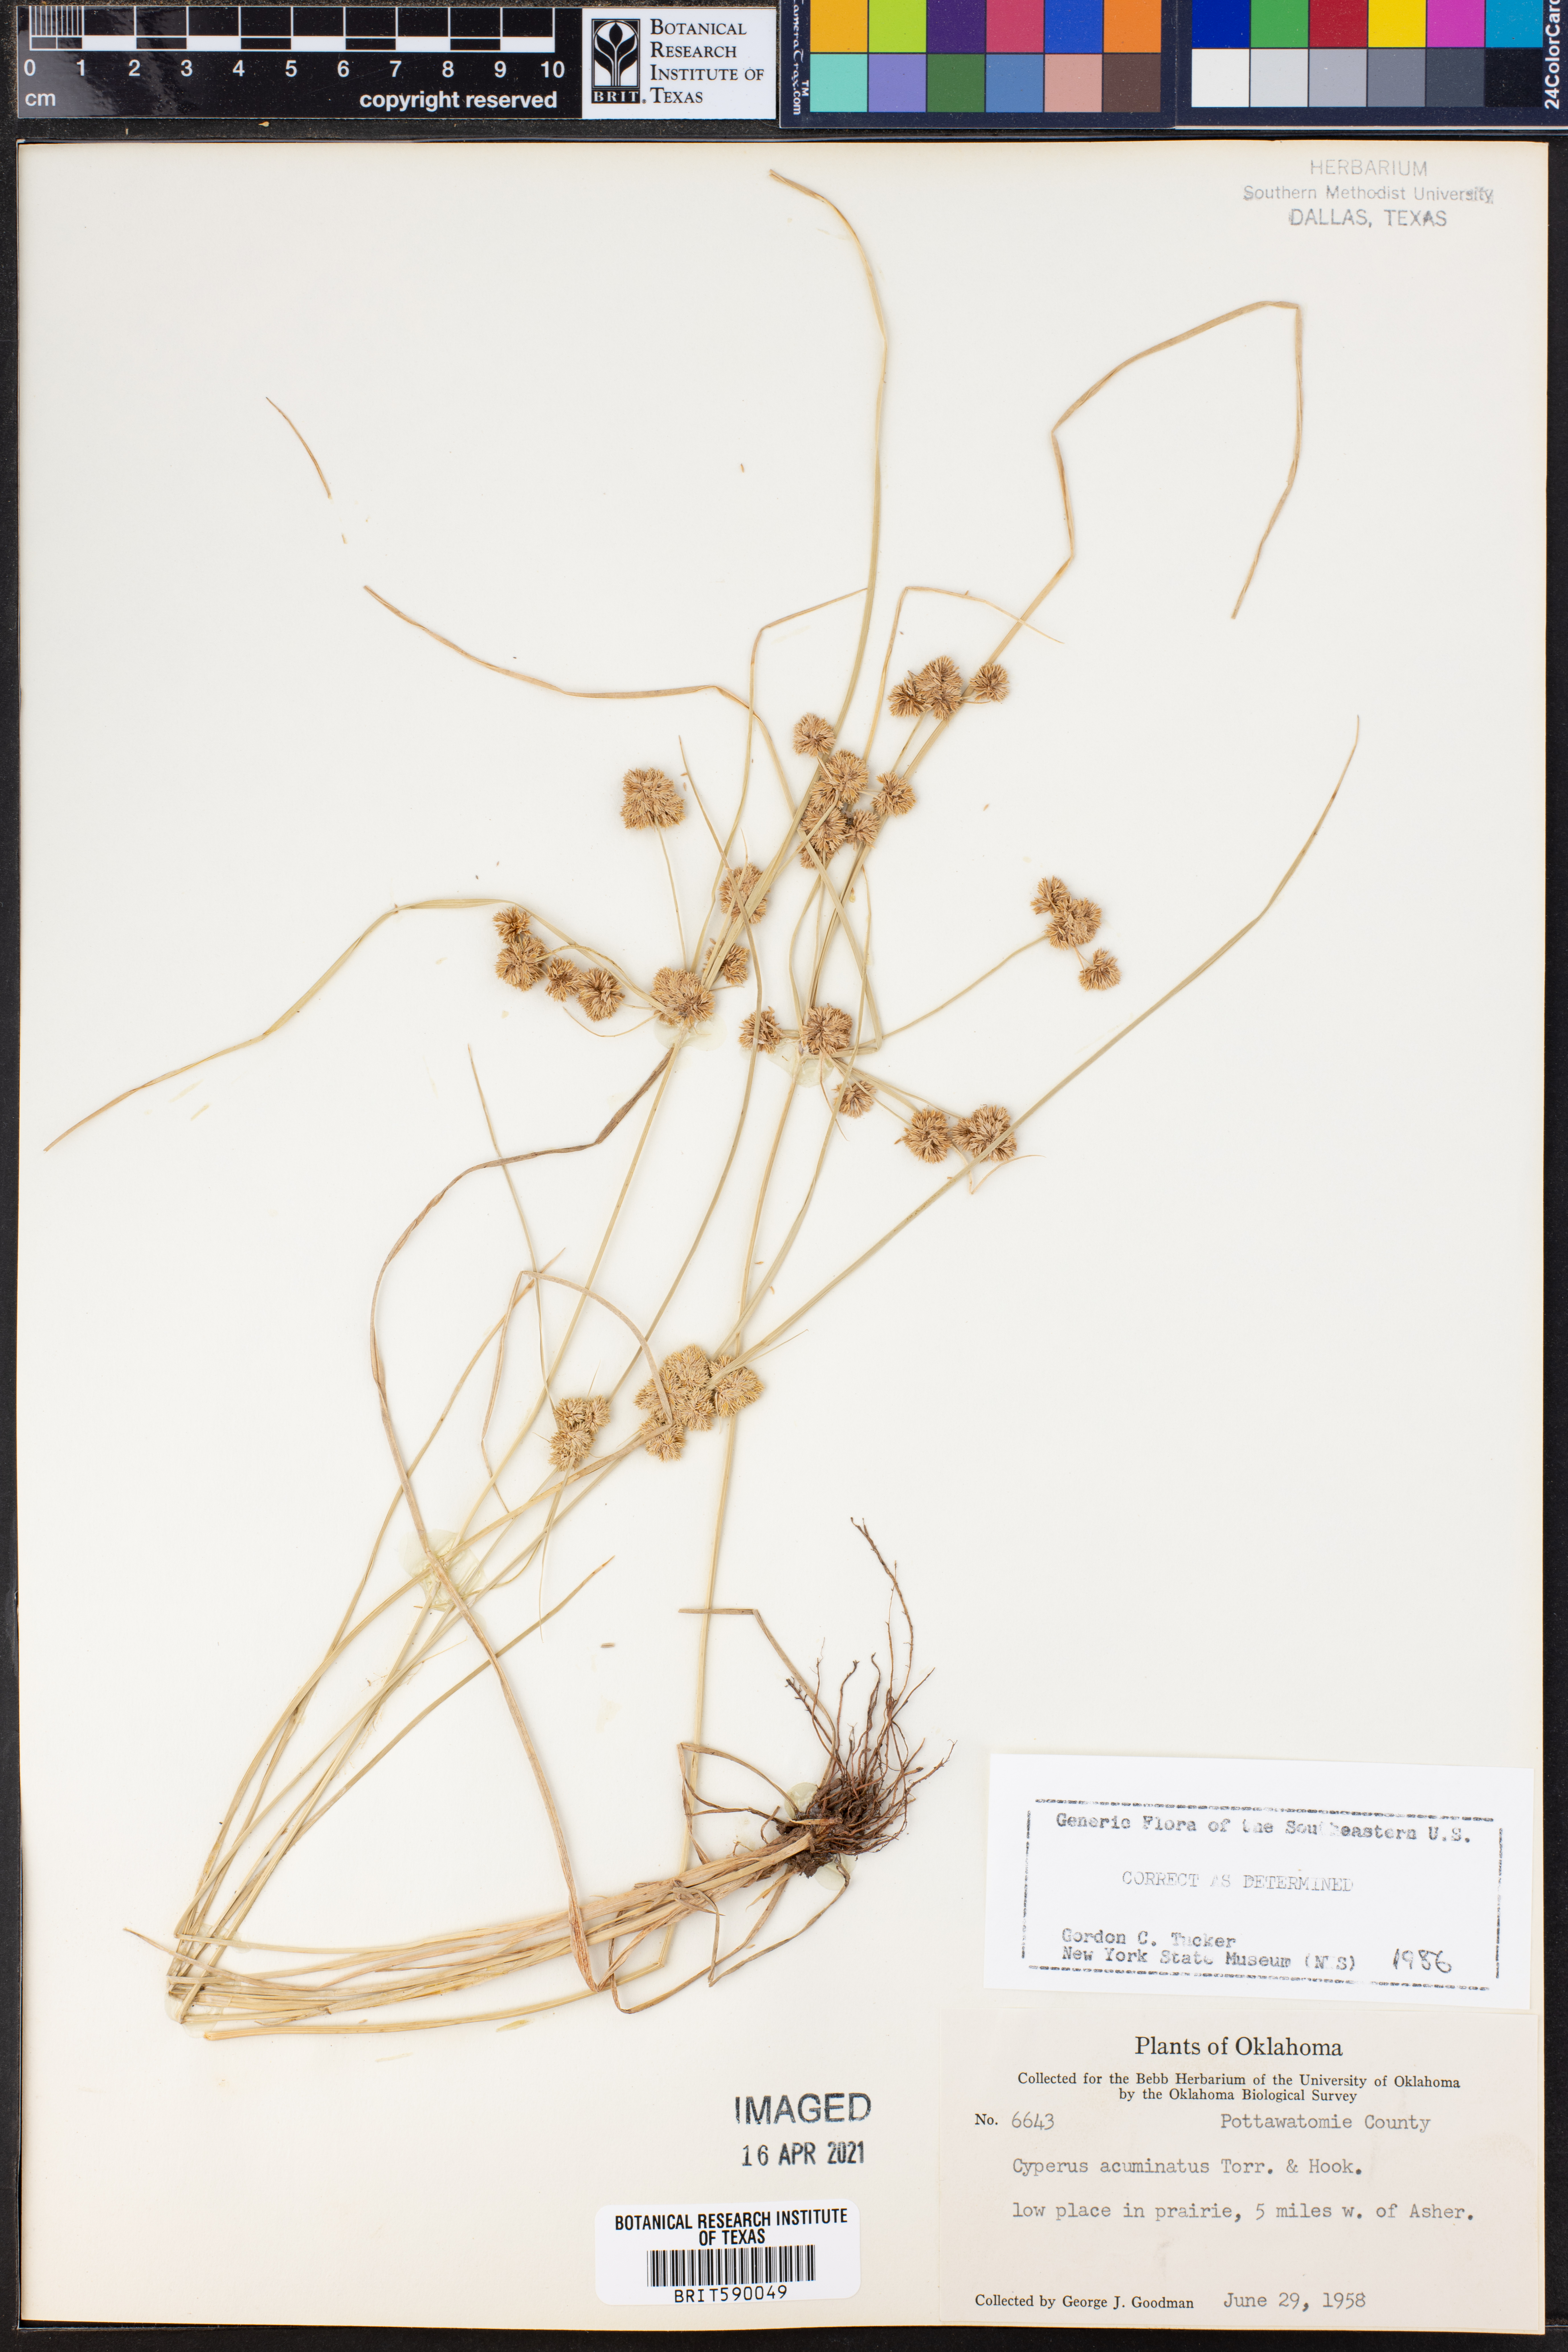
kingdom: Plantae
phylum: Tracheophyta
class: Liliopsida
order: Poales
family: Cyperaceae
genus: Cyperus
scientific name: Cyperus acuminatus
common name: Short-pointed cyperus
